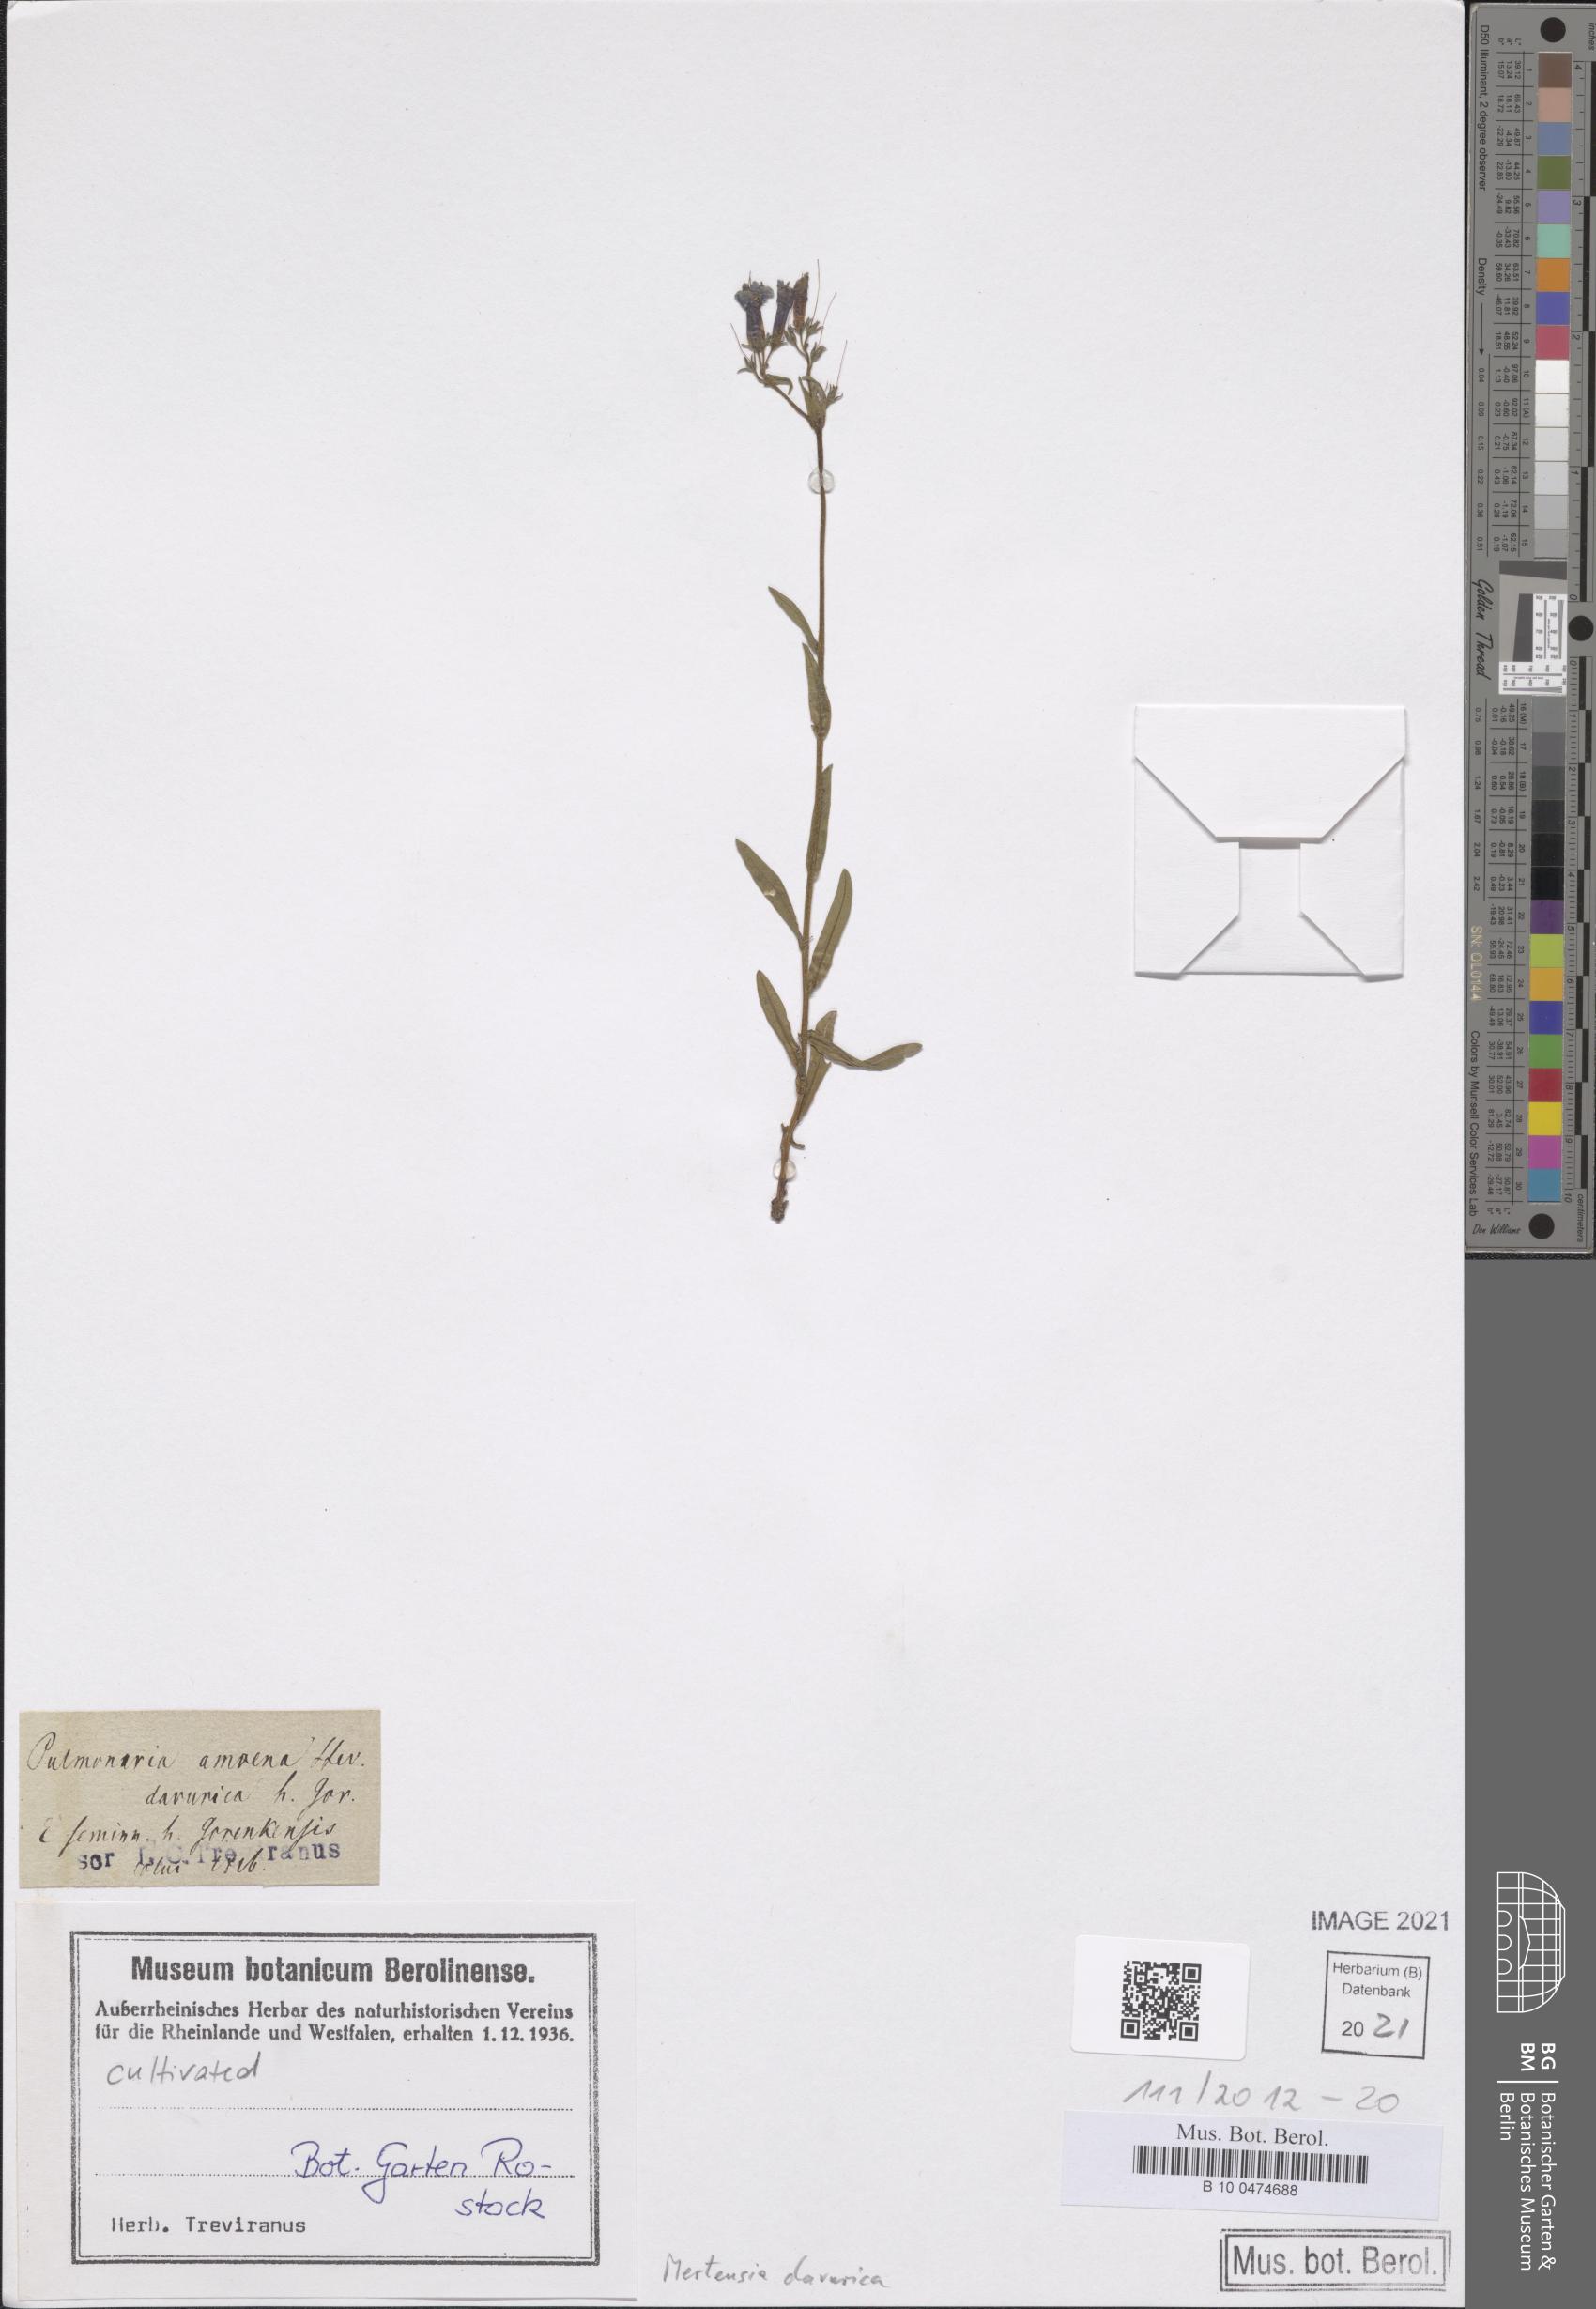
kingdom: Plantae
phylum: Tracheophyta
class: Magnoliopsida
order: Boraginales
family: Boraginaceae
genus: Mertensia
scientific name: Mertensia davurica
